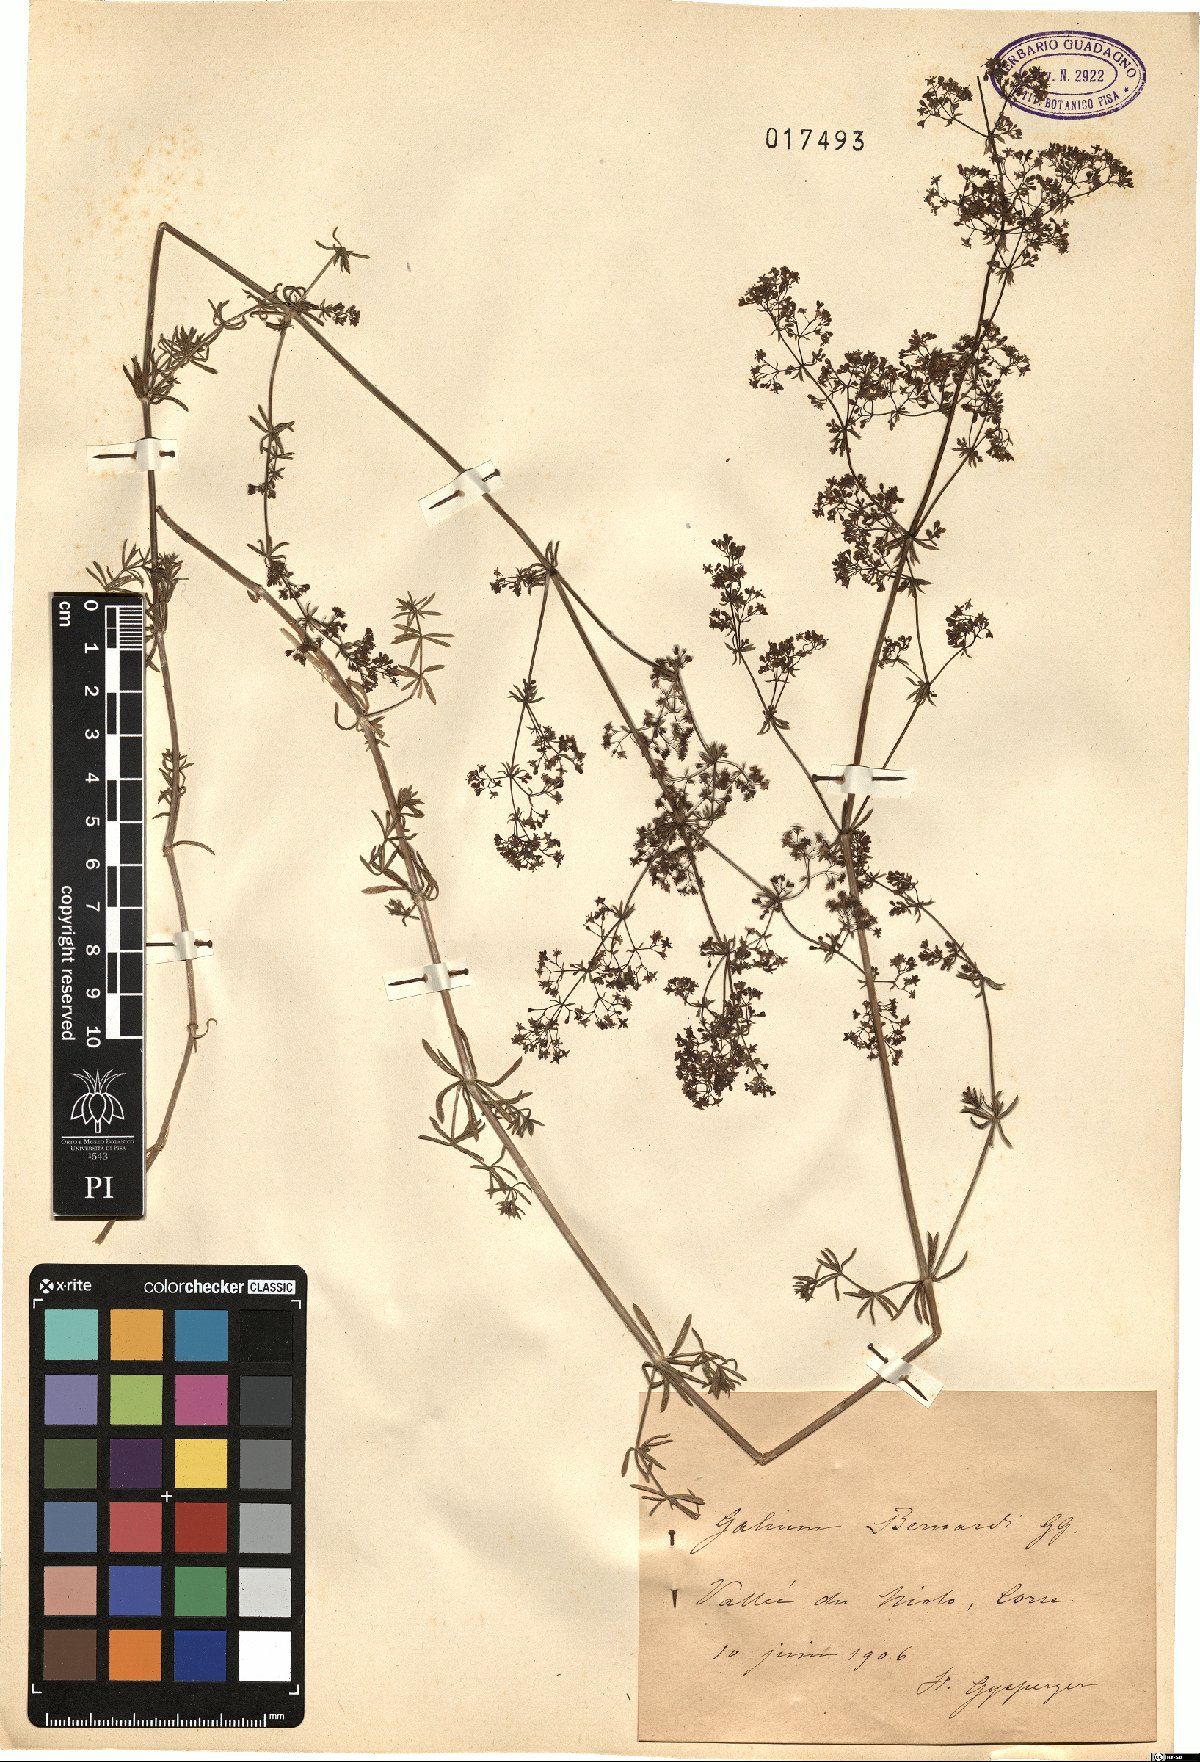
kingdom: Plantae
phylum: Tracheophyta
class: Magnoliopsida
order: Gentianales
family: Rubiaceae
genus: Galium
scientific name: Galium lucidum
